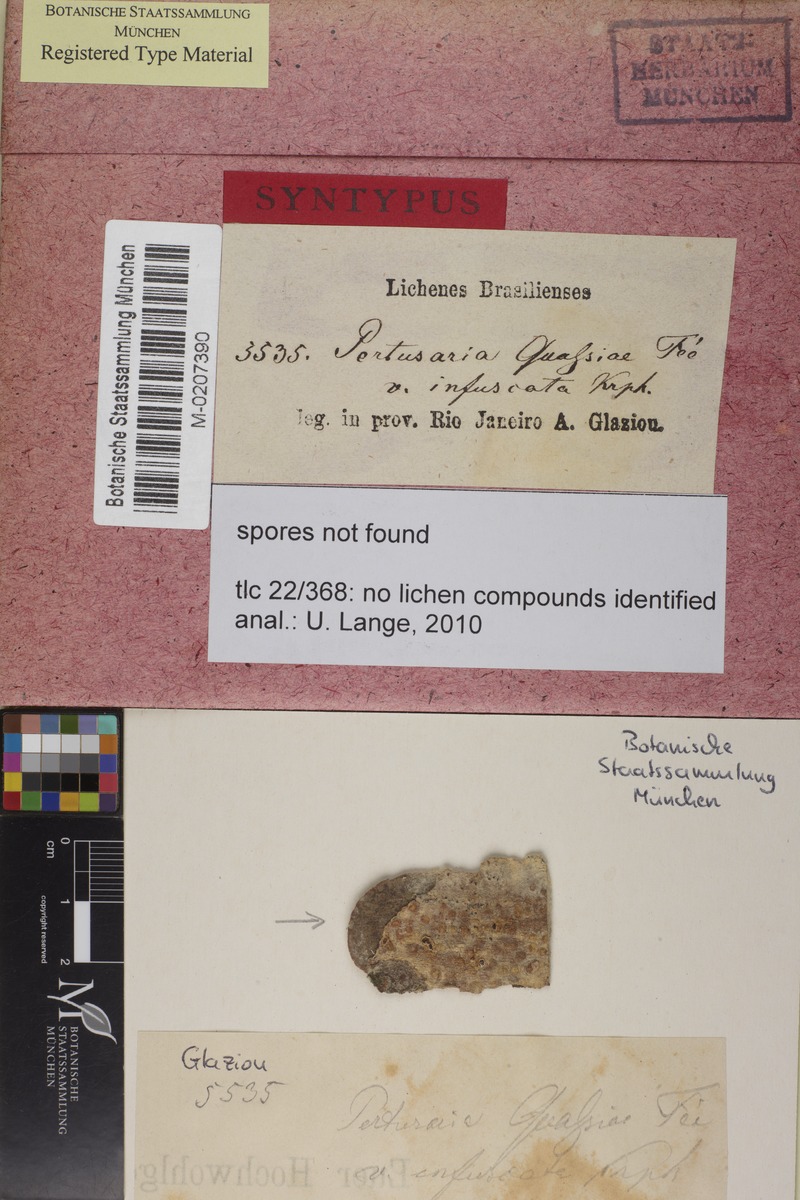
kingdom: Fungi
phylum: Ascomycota
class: Lecanoromycetes
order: Pertusariales
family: Pertusariaceae
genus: Pertusaria
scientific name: Pertusaria quassiae
